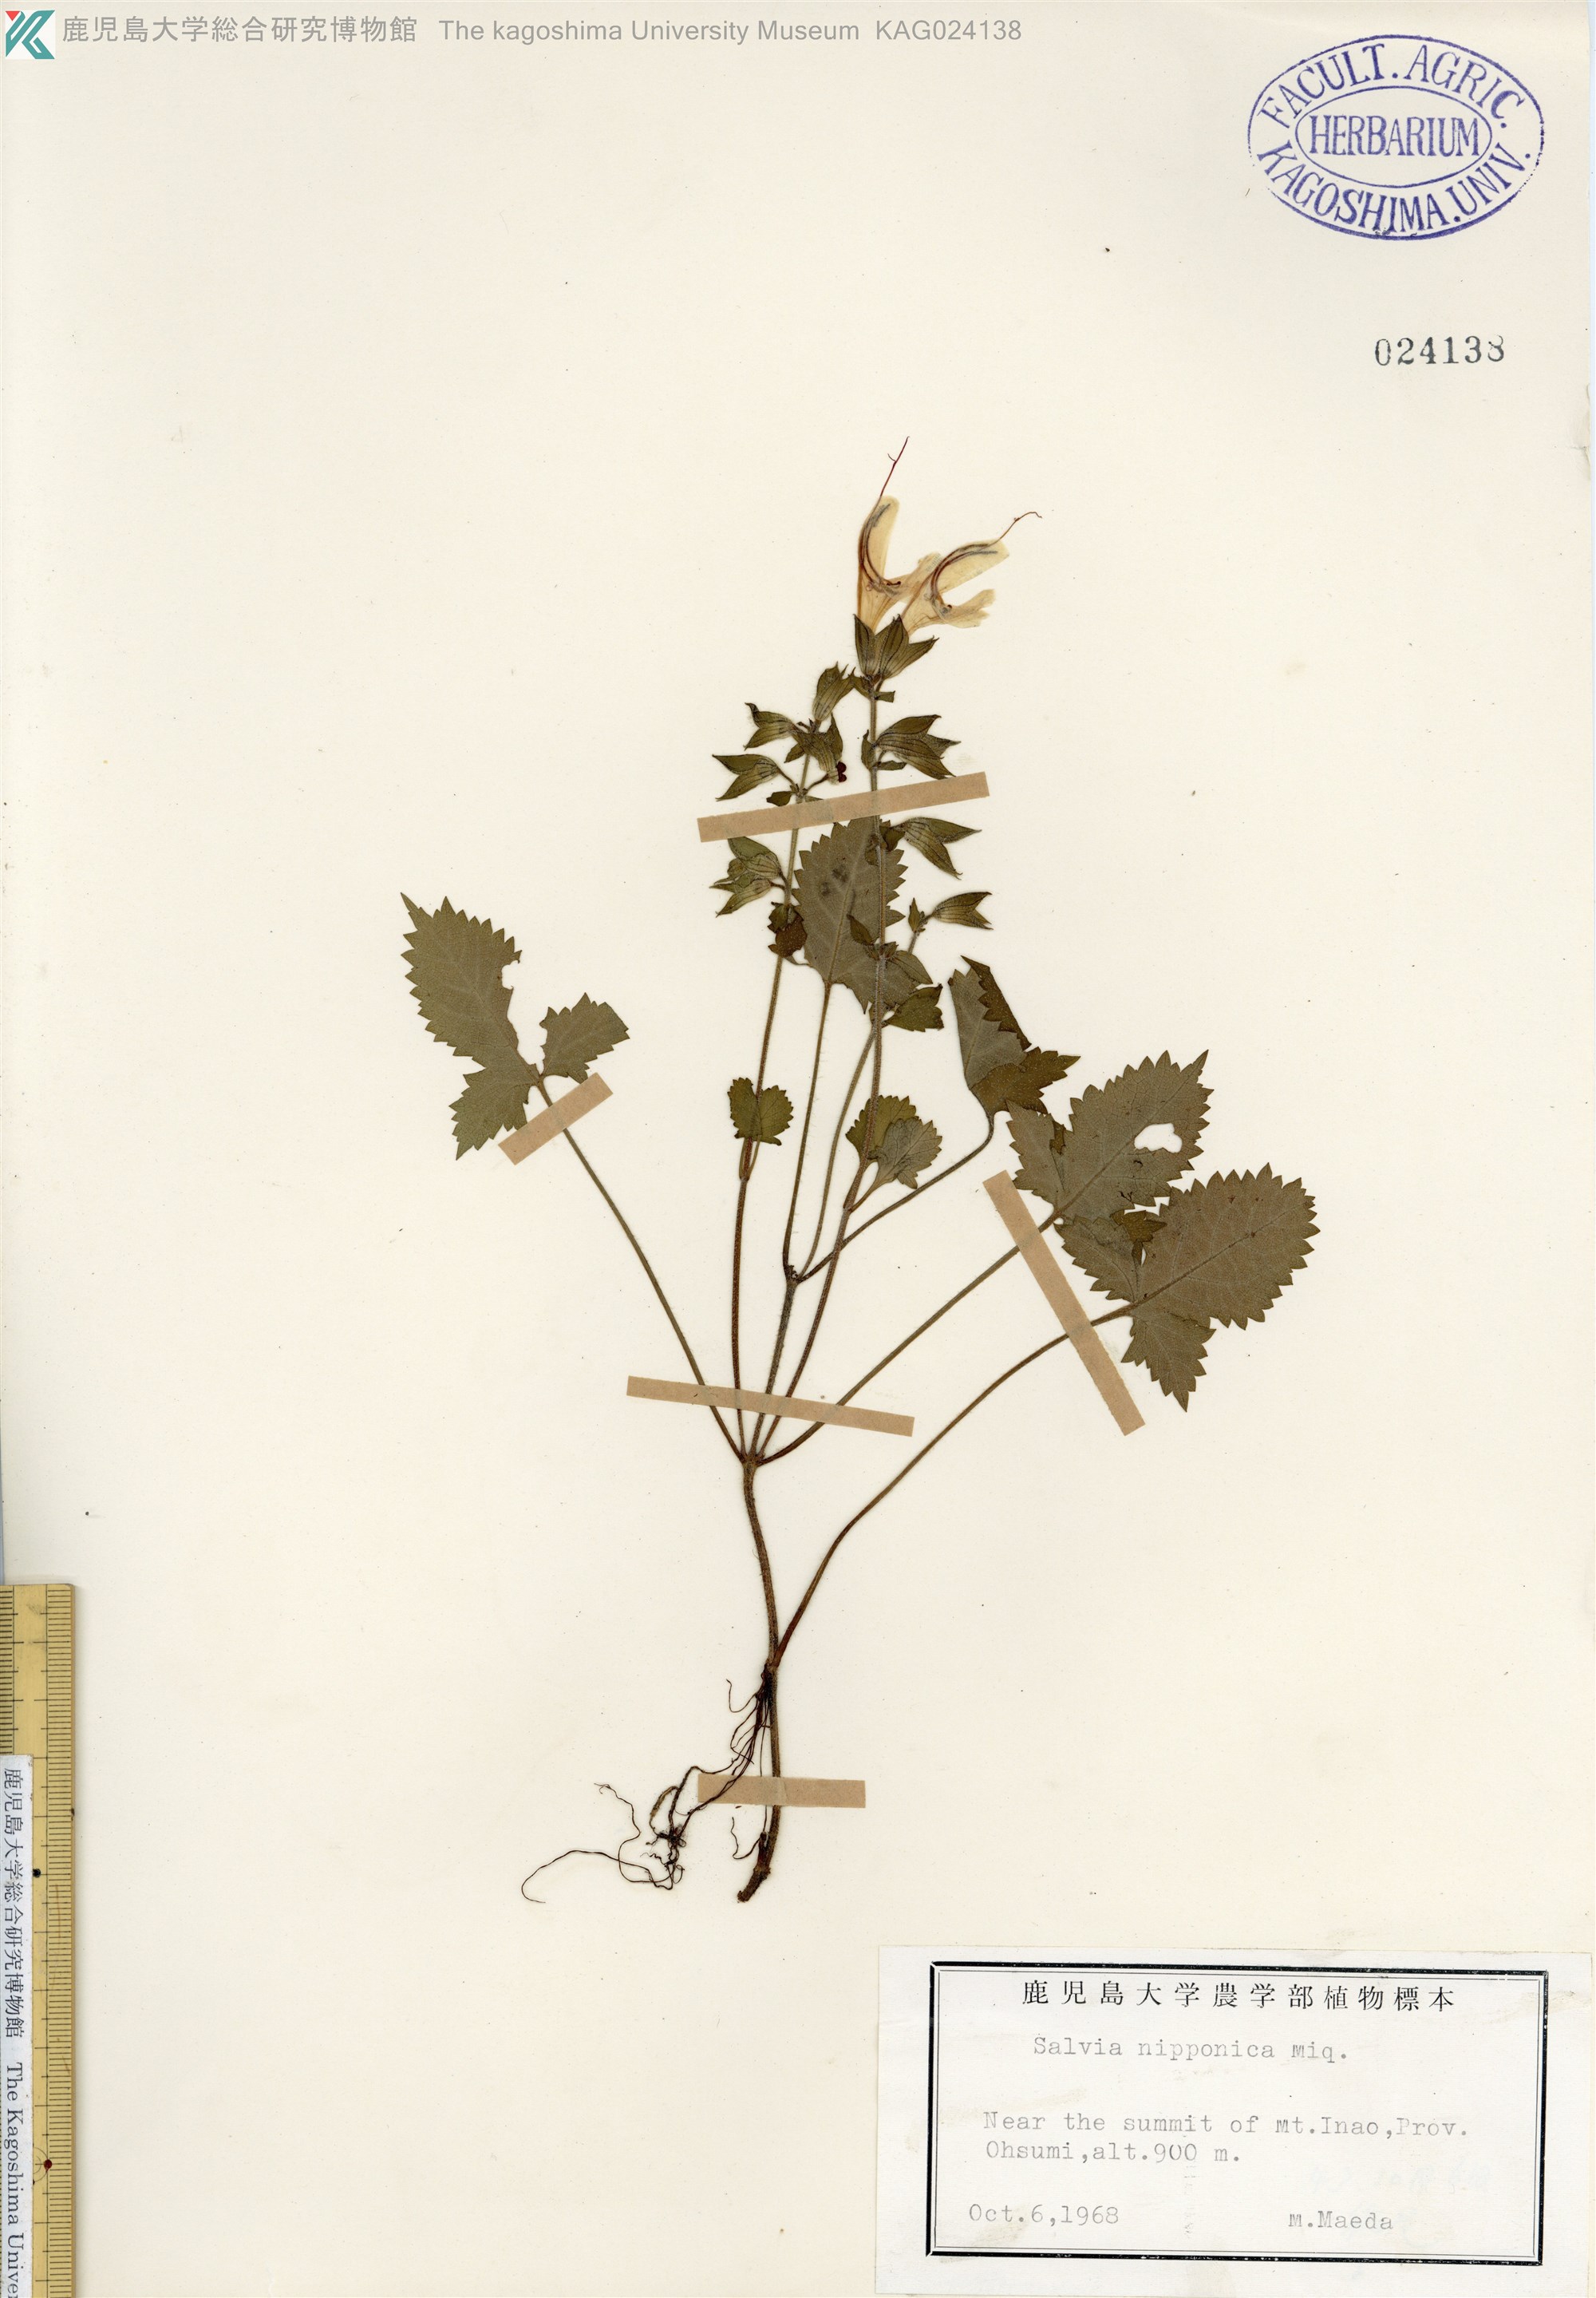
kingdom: Plantae
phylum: Tracheophyta
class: Magnoliopsida
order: Lamiales
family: Lamiaceae
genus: Salvia
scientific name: Salvia nipponica
